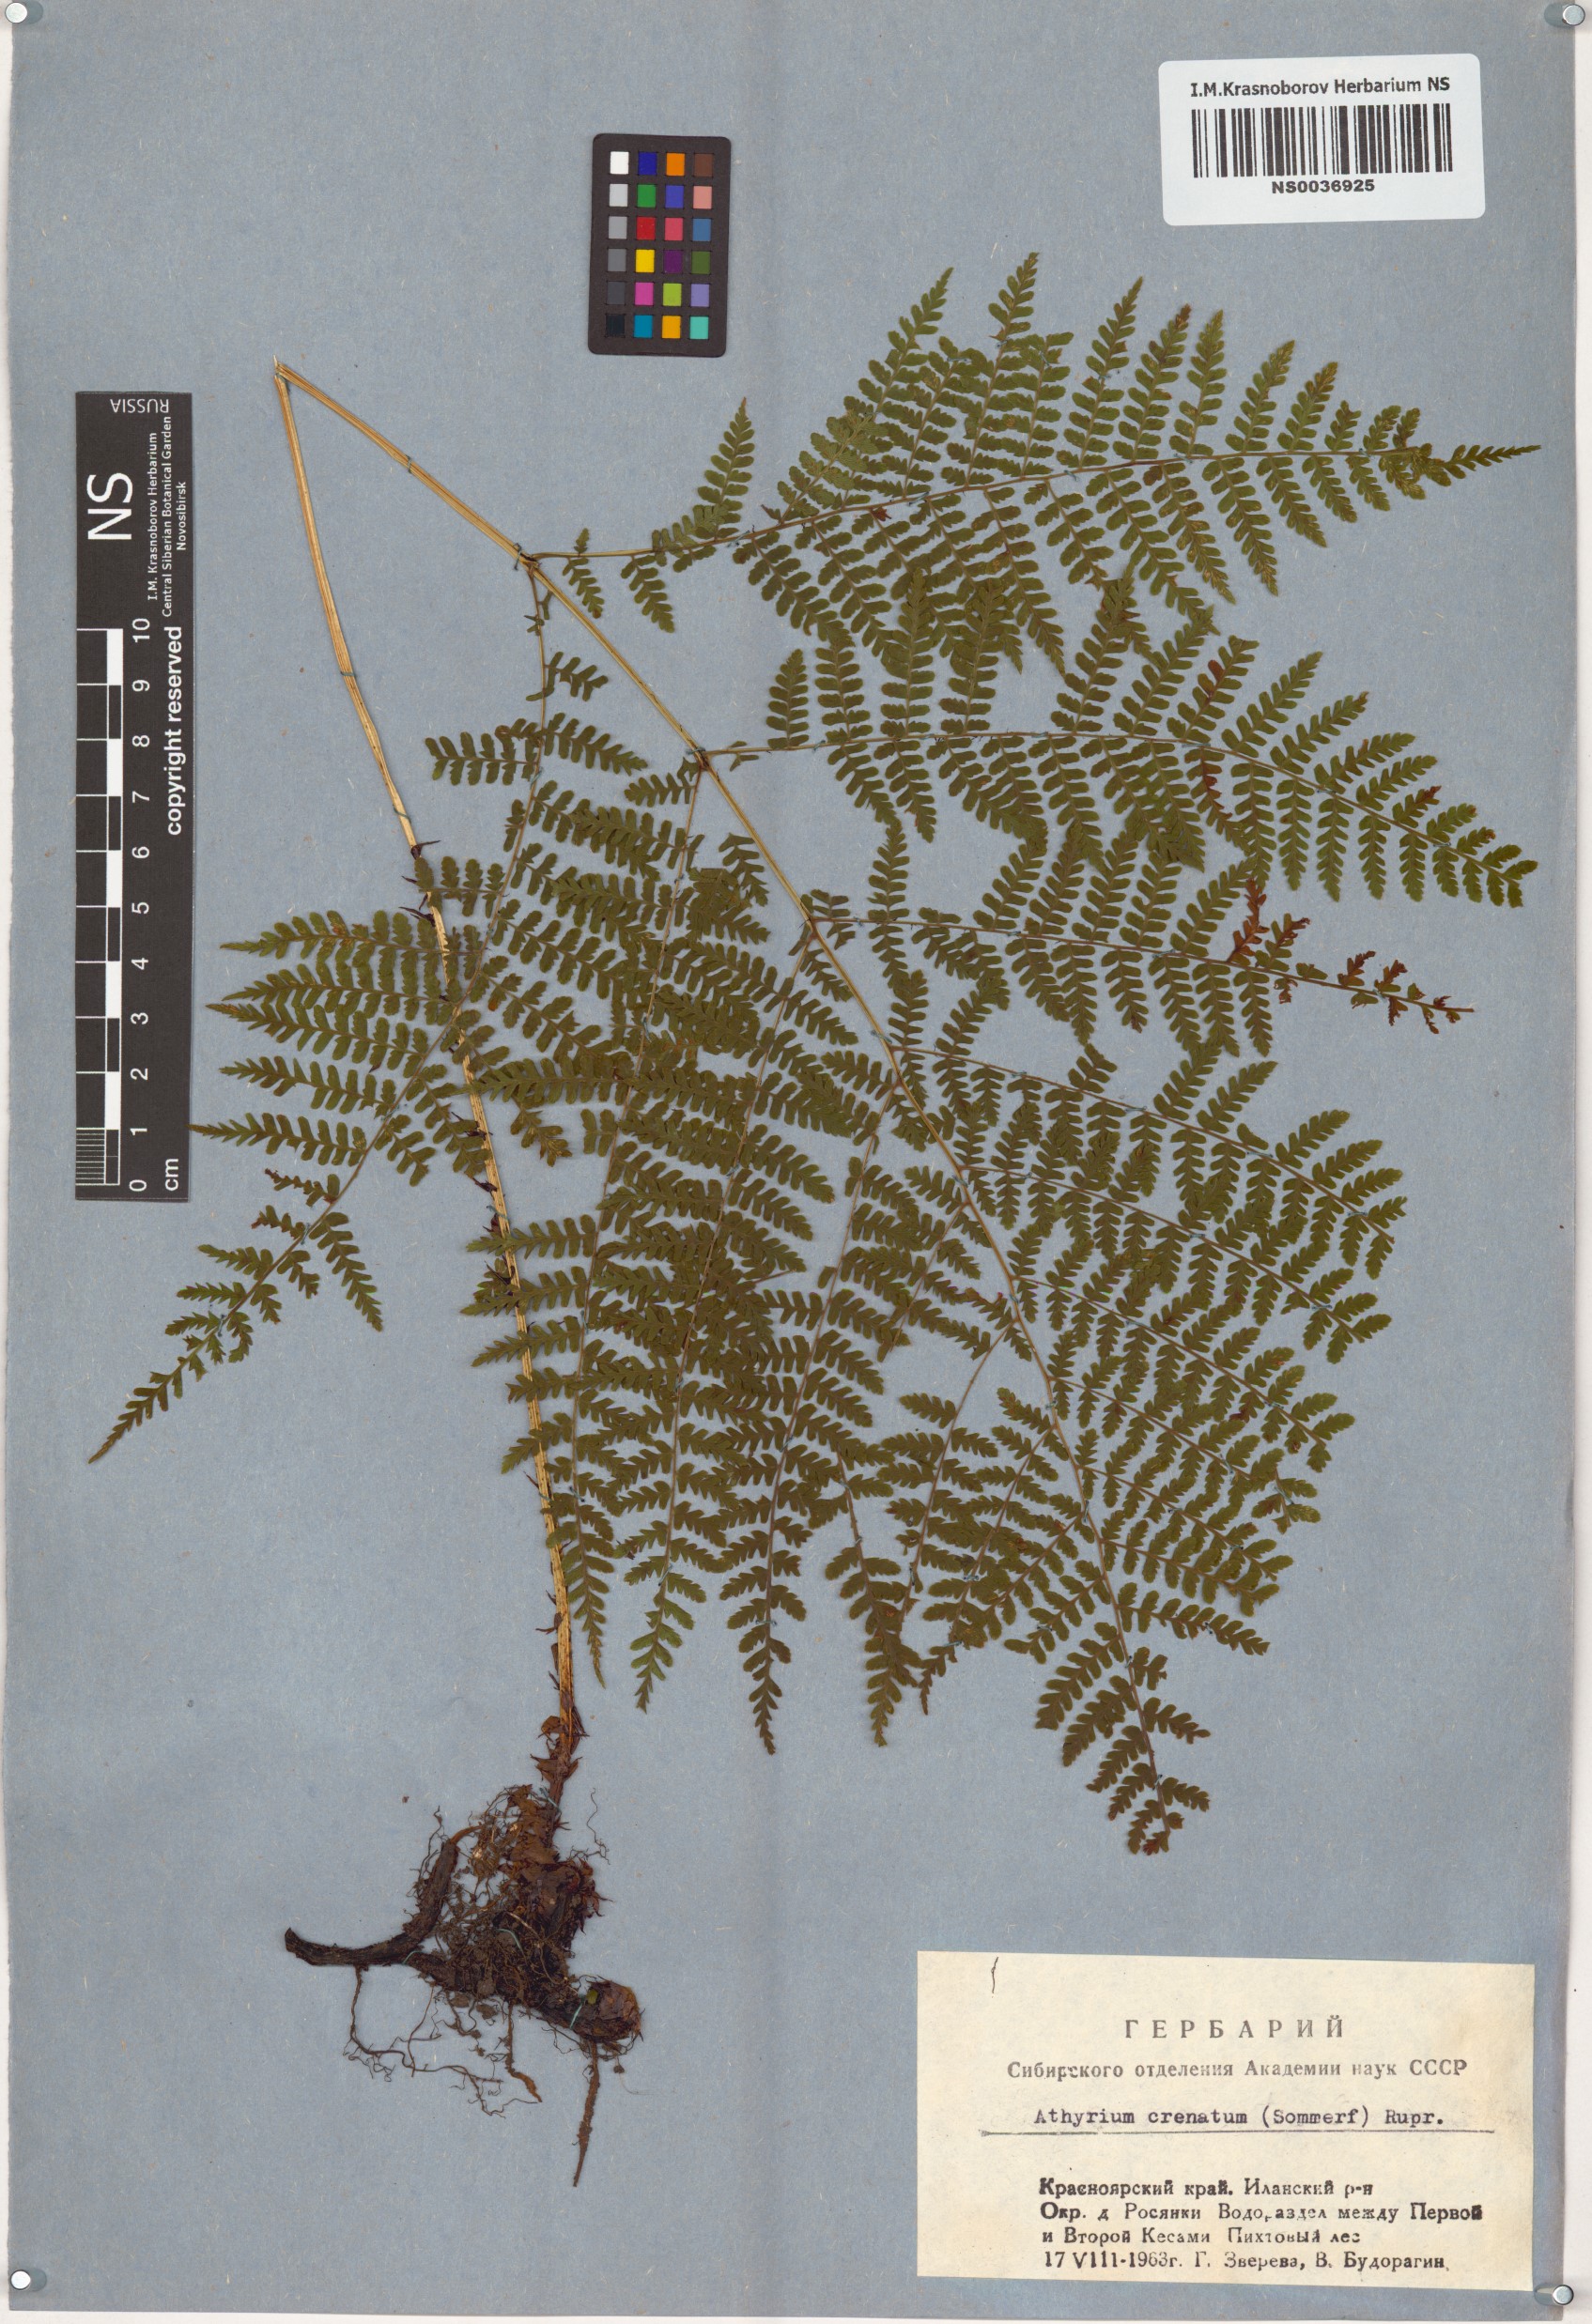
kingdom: Plantae
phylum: Tracheophyta
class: Polypodiopsida
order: Polypodiales
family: Athyriaceae
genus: Diplazium
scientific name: Diplazium sibiricum
